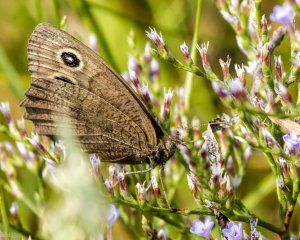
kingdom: Animalia
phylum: Arthropoda
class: Insecta
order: Lepidoptera
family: Nymphalidae
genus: Cercyonis
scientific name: Cercyonis pegala
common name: Common Wood-Nymph
